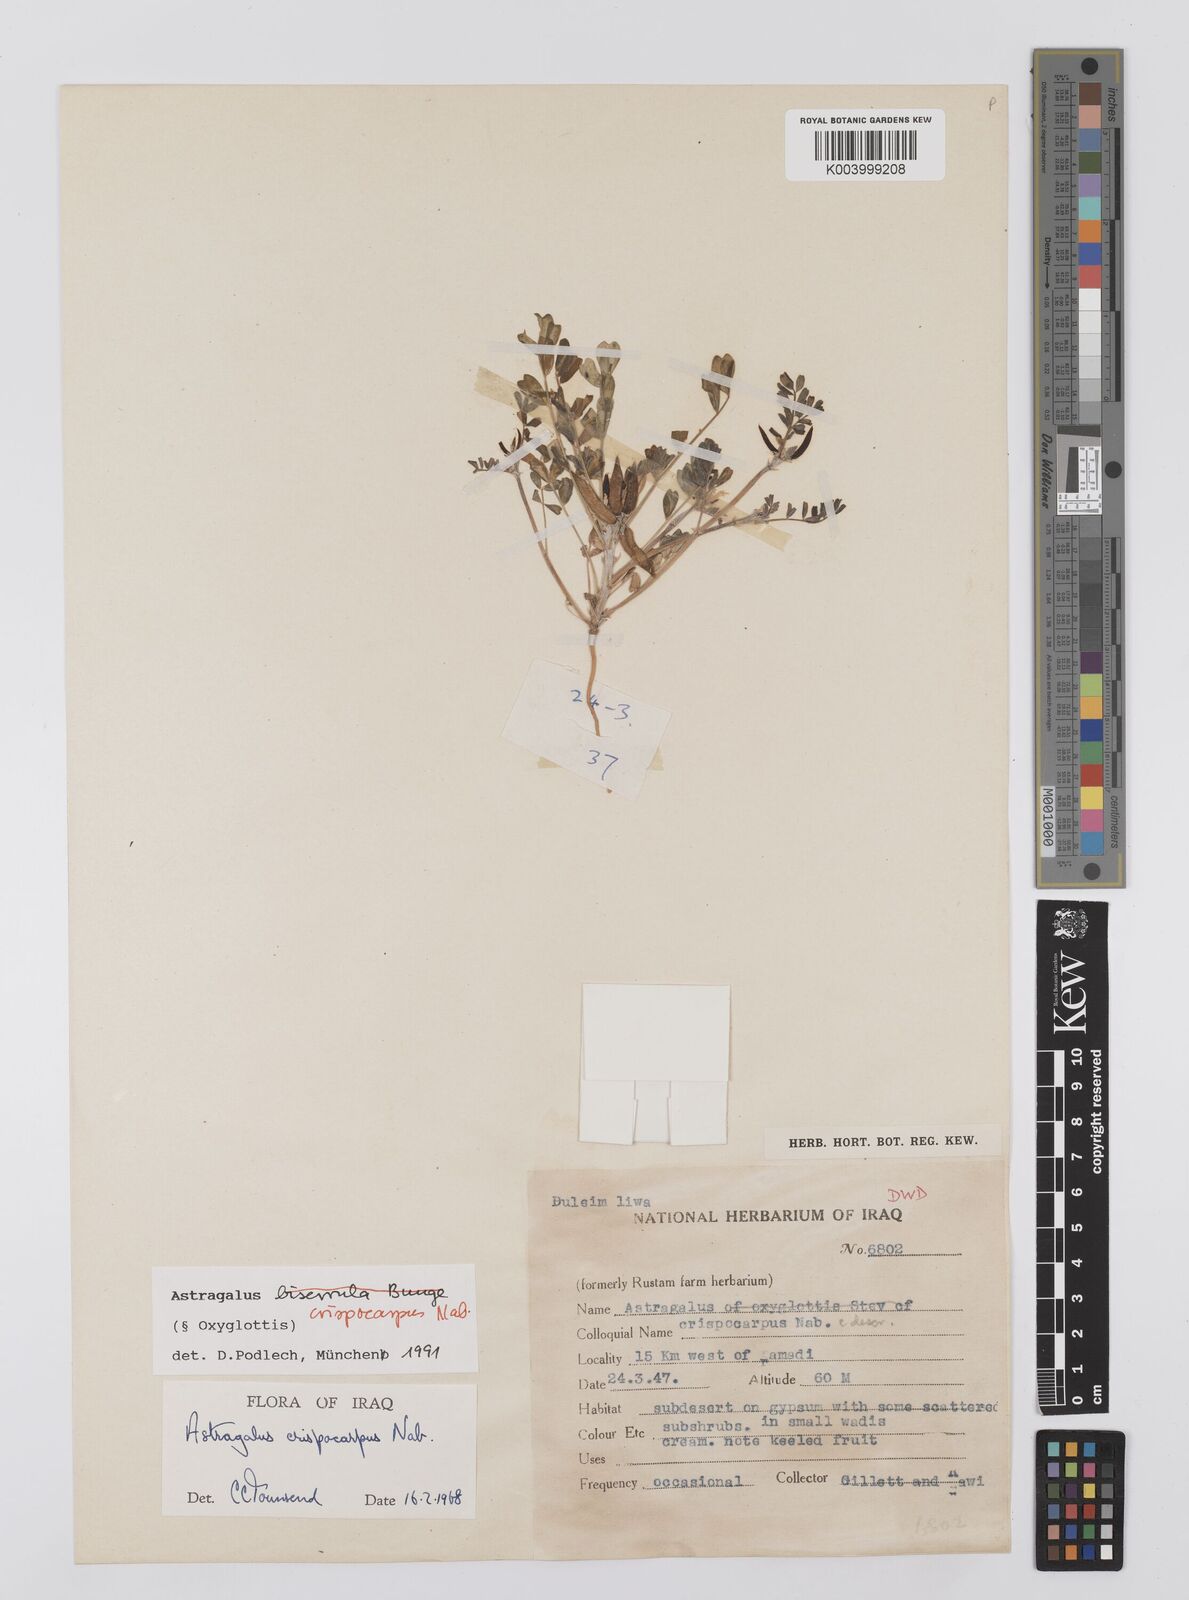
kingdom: Plantae
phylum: Tracheophyta
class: Magnoliopsida
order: Fabales
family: Fabaceae
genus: Astragalus
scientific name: Astragalus crispocarpus
